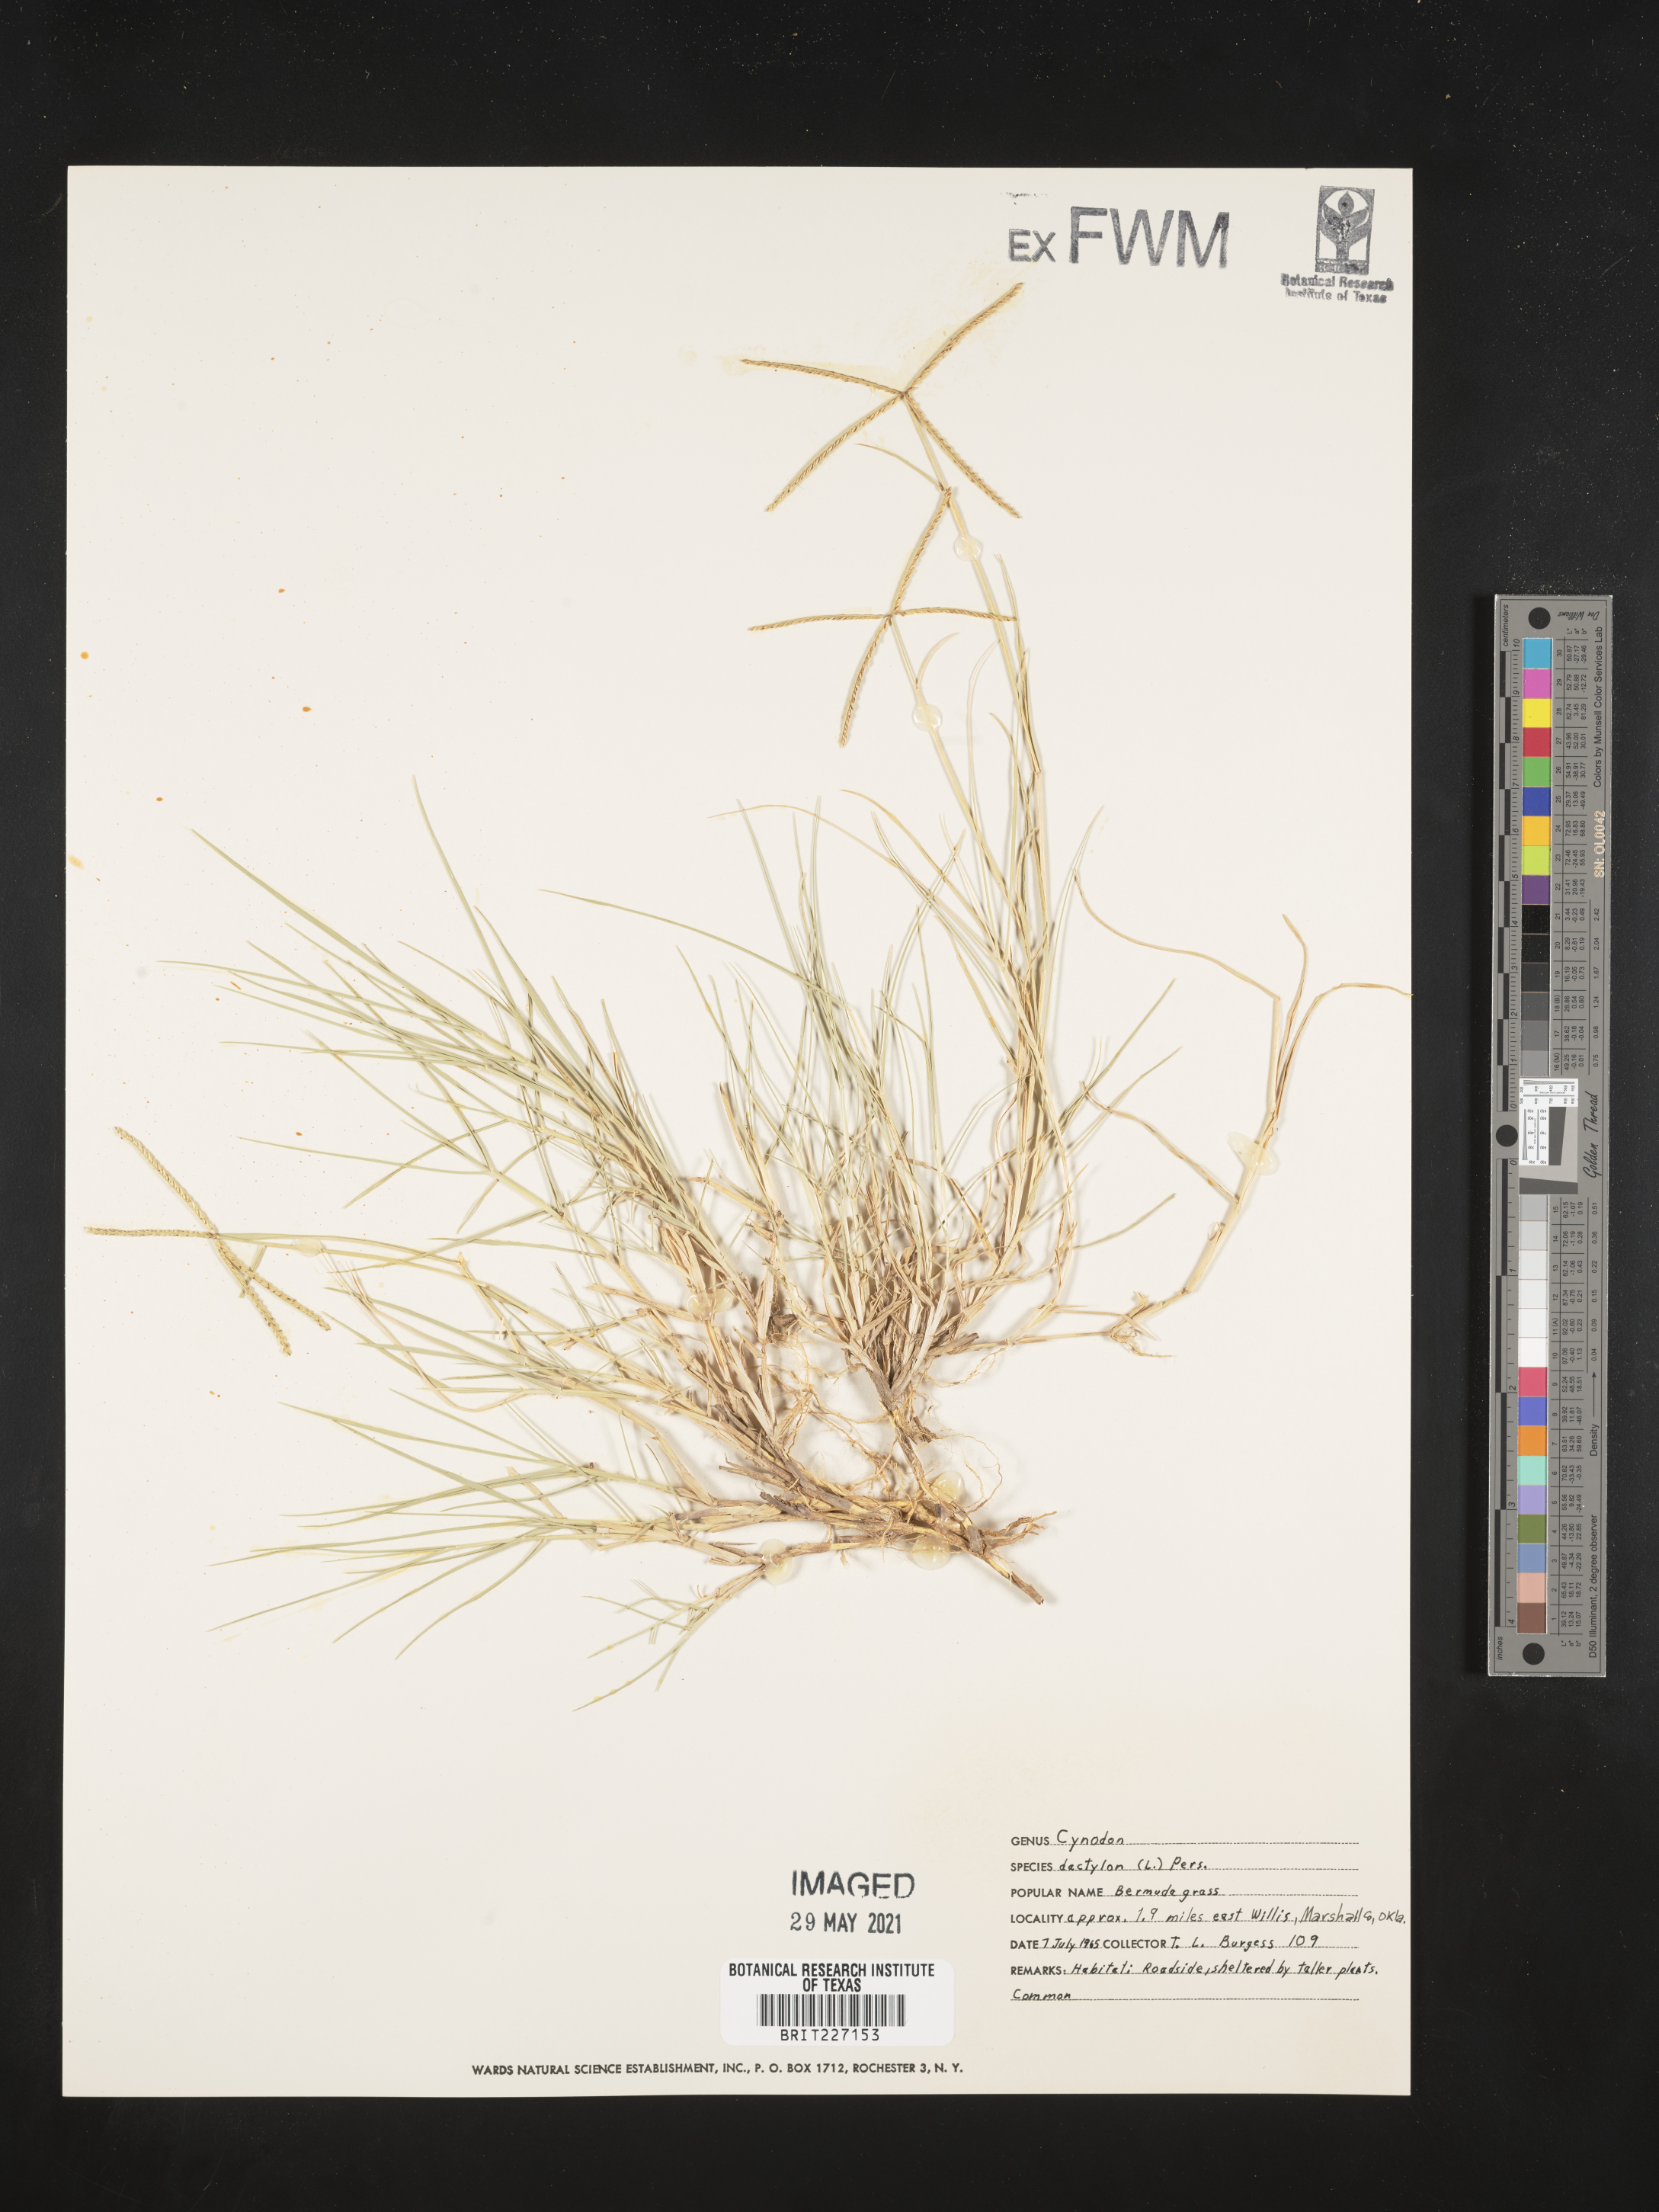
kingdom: Plantae
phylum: Tracheophyta
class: Liliopsida
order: Poales
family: Poaceae
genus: Cynodon
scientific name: Cynodon dactylon
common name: Bermuda grass
